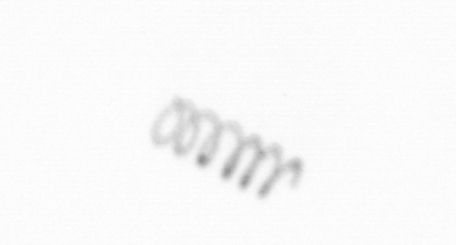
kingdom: Chromista
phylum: Ochrophyta
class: Bacillariophyceae
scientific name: Bacillariophyceae
